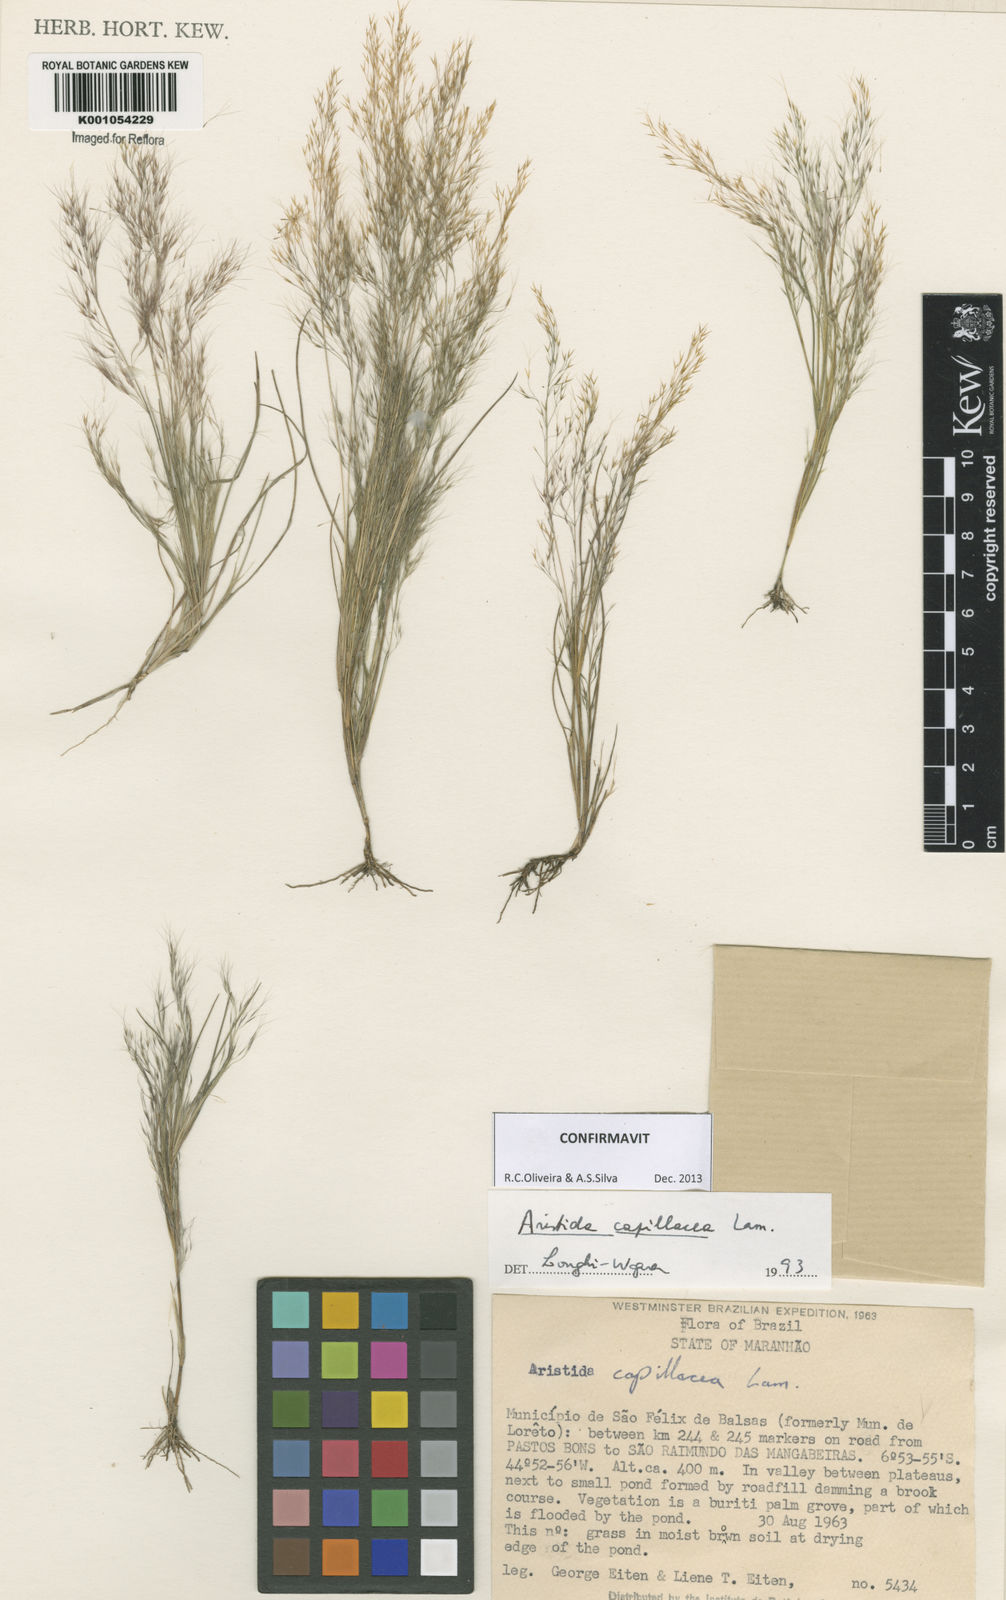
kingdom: Plantae
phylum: Tracheophyta
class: Liliopsida
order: Poales
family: Poaceae
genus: Aristida
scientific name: Aristida capillacea
